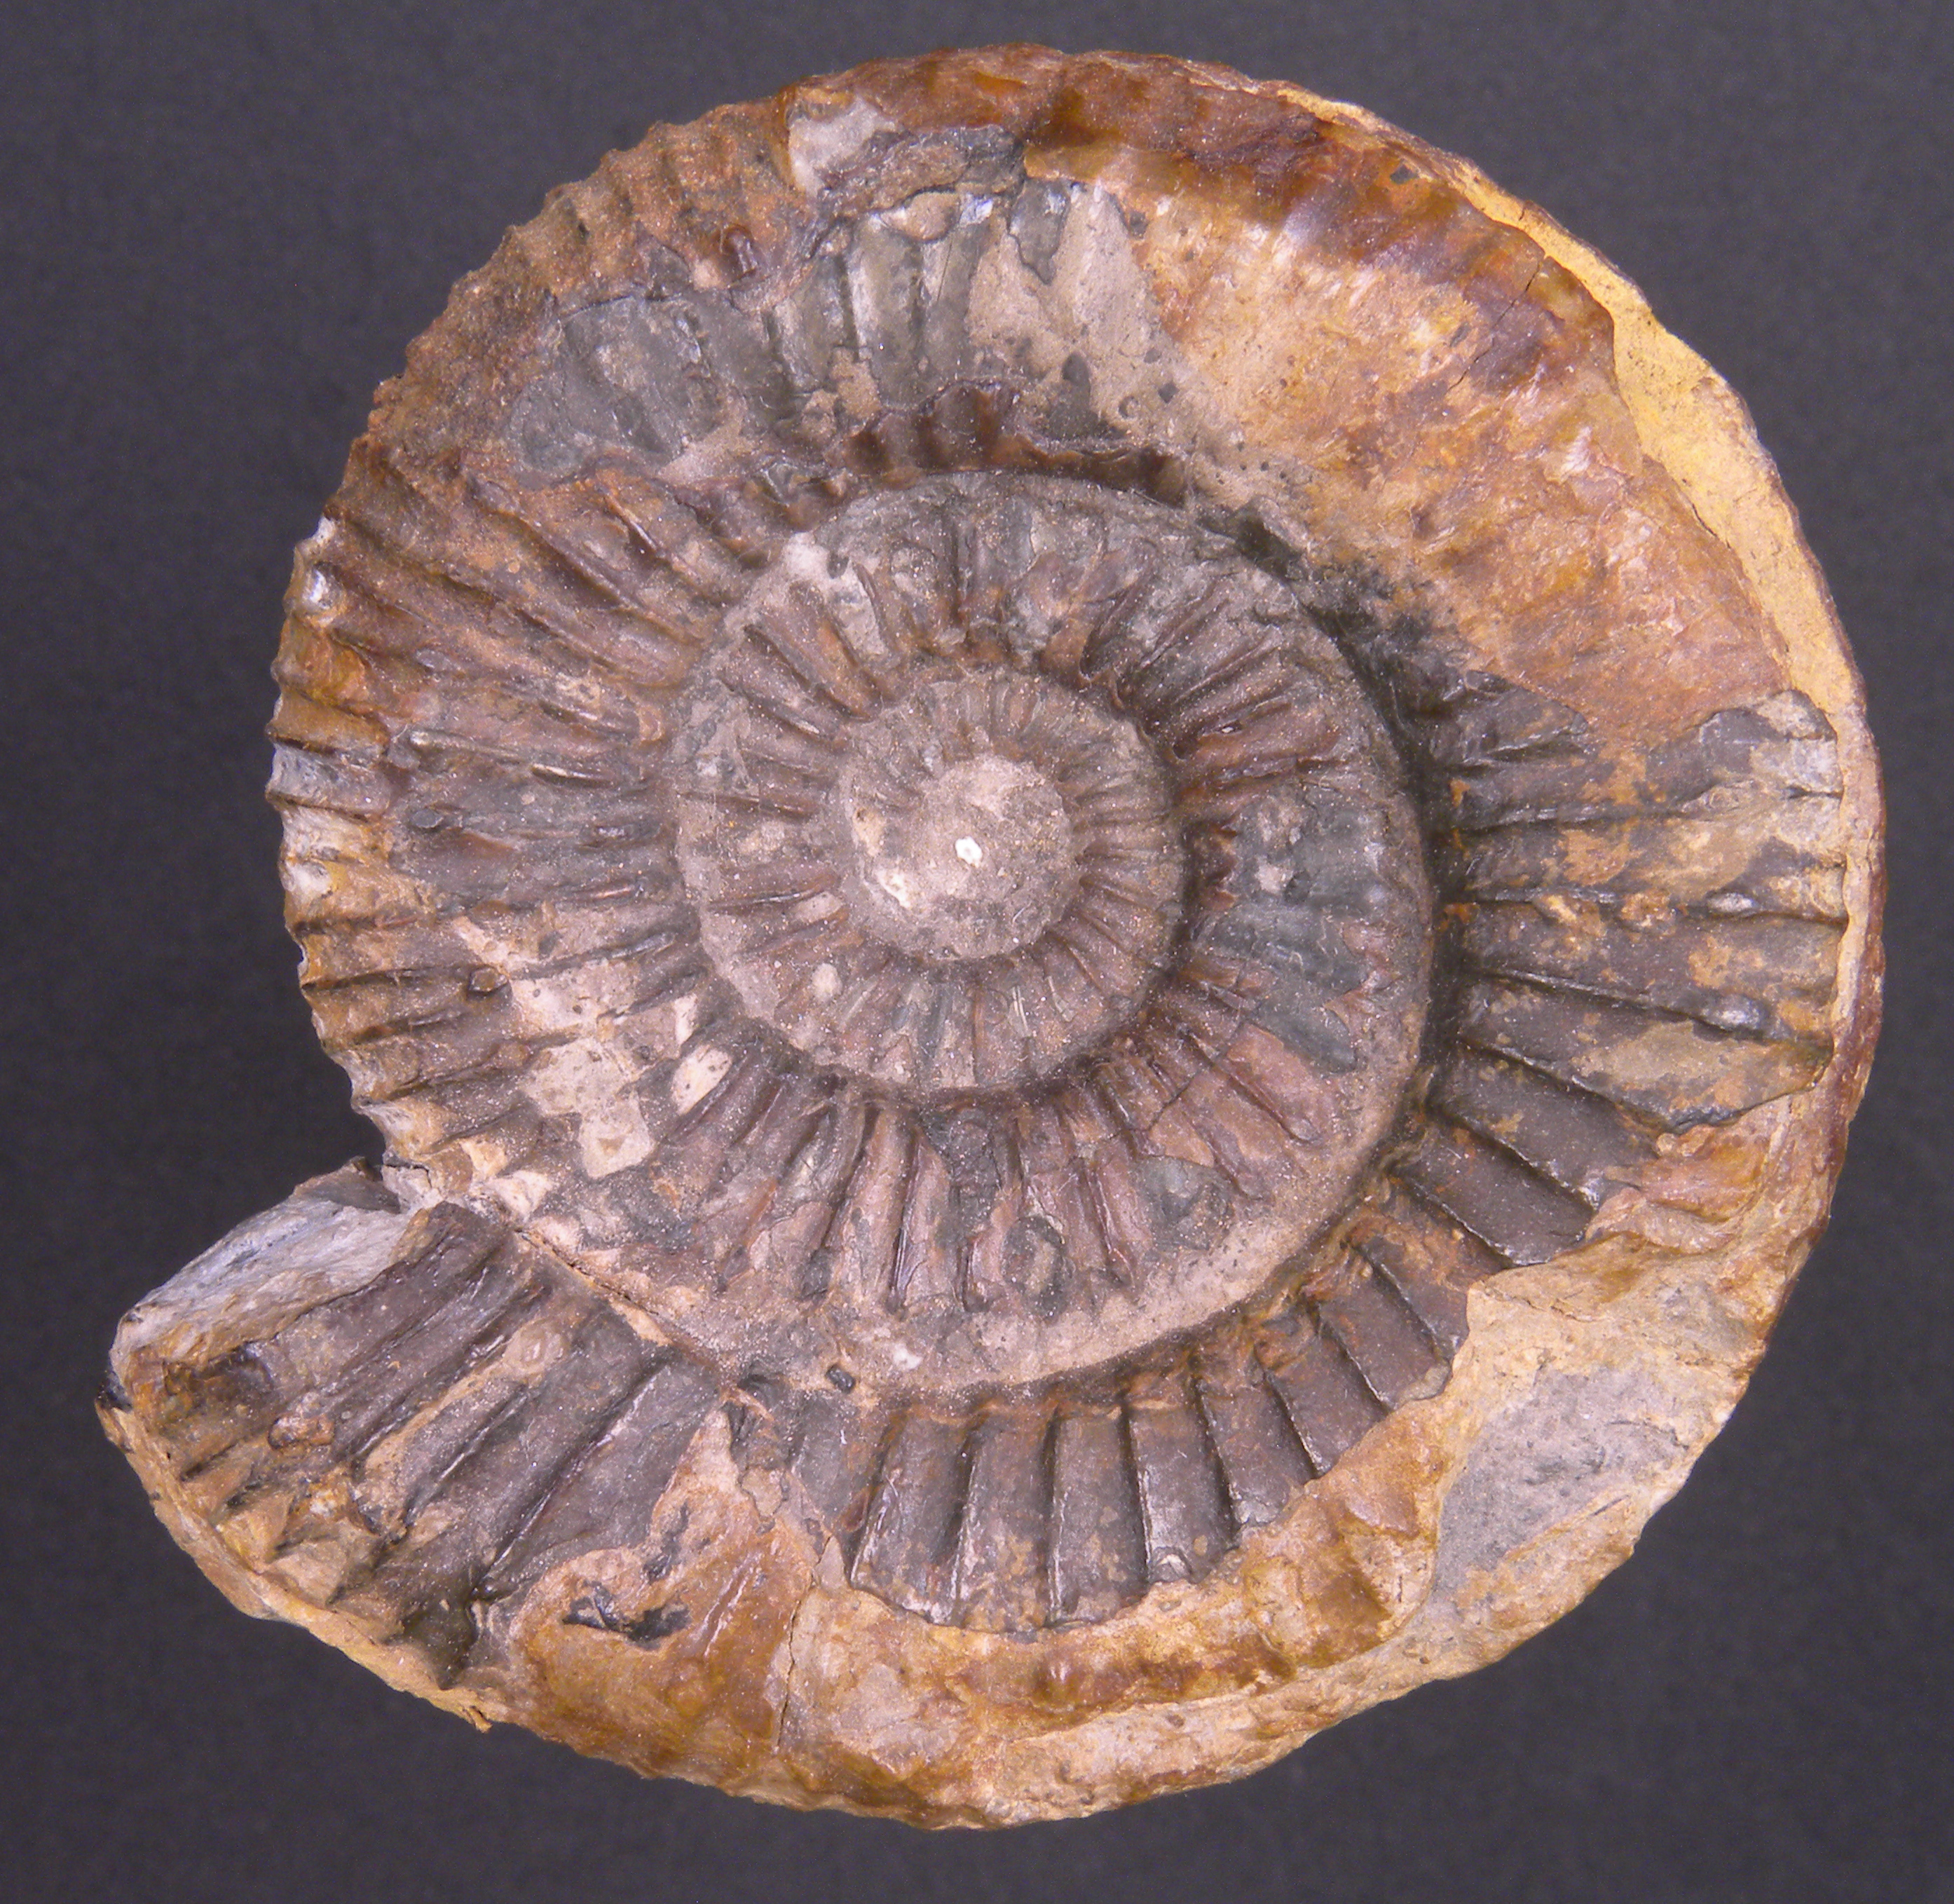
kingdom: Animalia
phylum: Mollusca
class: Cephalopoda
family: Dactylioceratidae
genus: Catacoeloceras
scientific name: Catacoeloceras confectum
